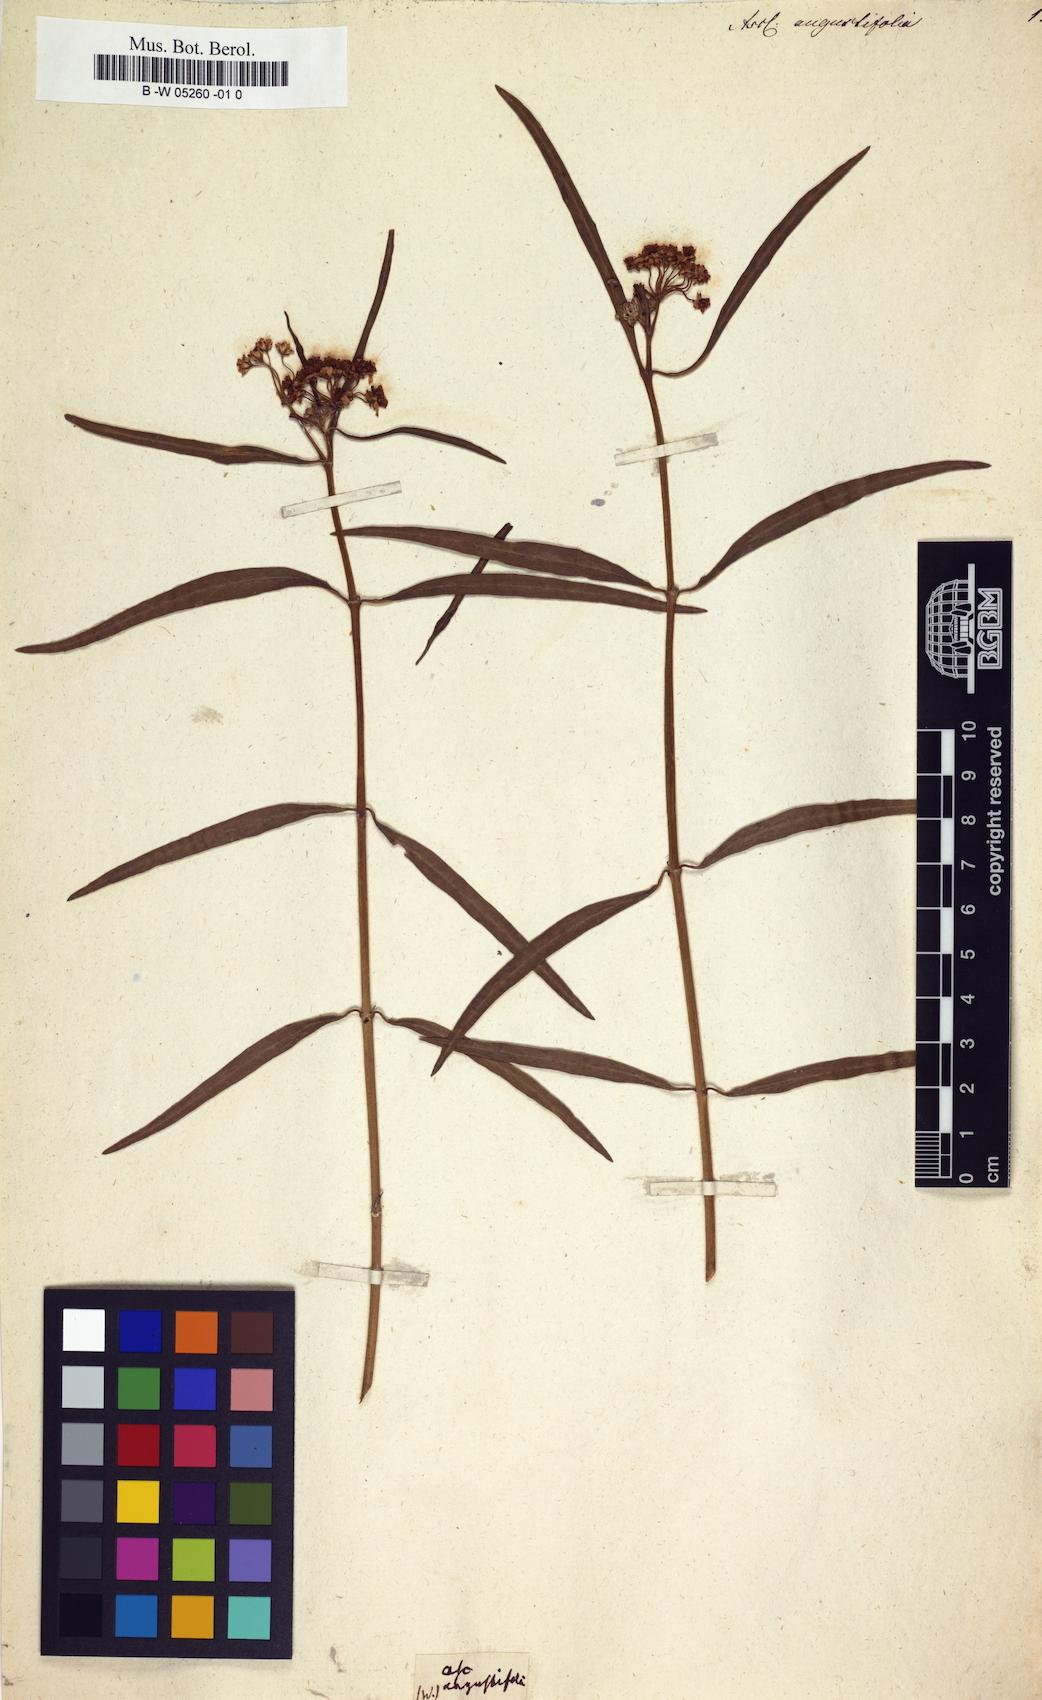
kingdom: Plantae
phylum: Tracheophyta
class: Magnoliopsida
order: Gentianales
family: Apocynaceae
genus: Asclepias
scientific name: Asclepias angustifolia
